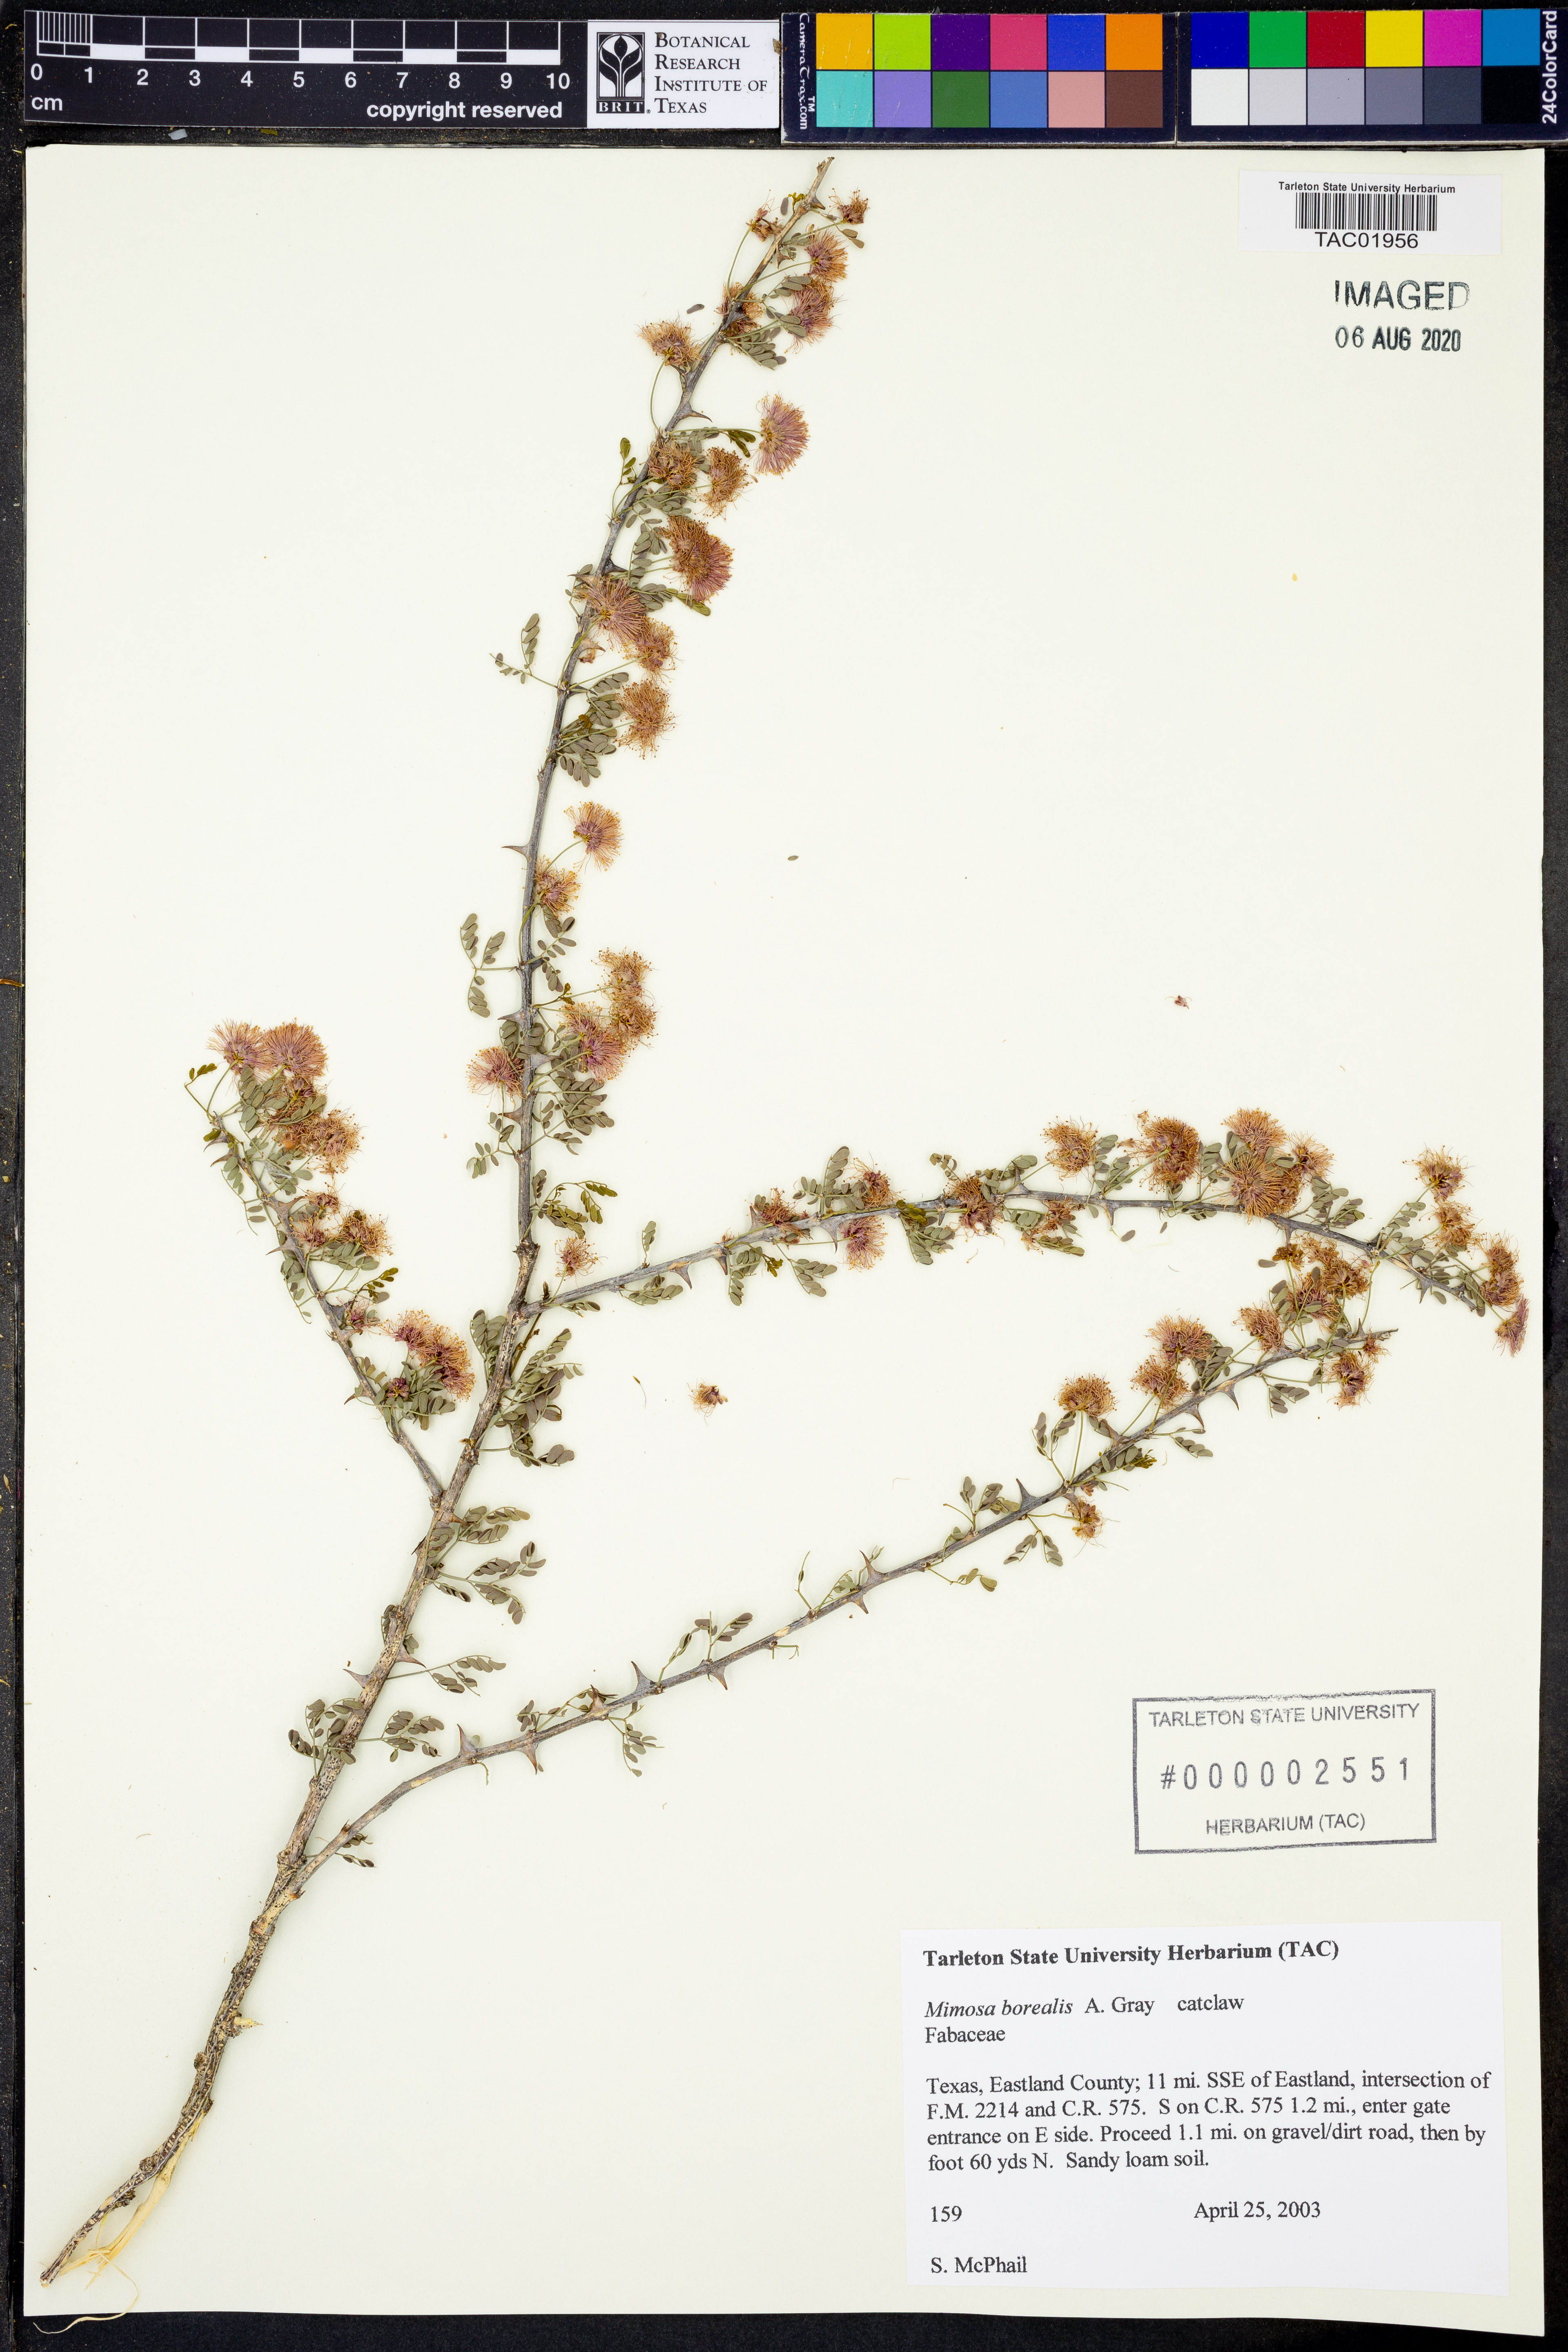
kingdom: Plantae
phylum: Tracheophyta
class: Magnoliopsida
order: Fabales
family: Fabaceae
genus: Mimosa
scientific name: Mimosa borealis
